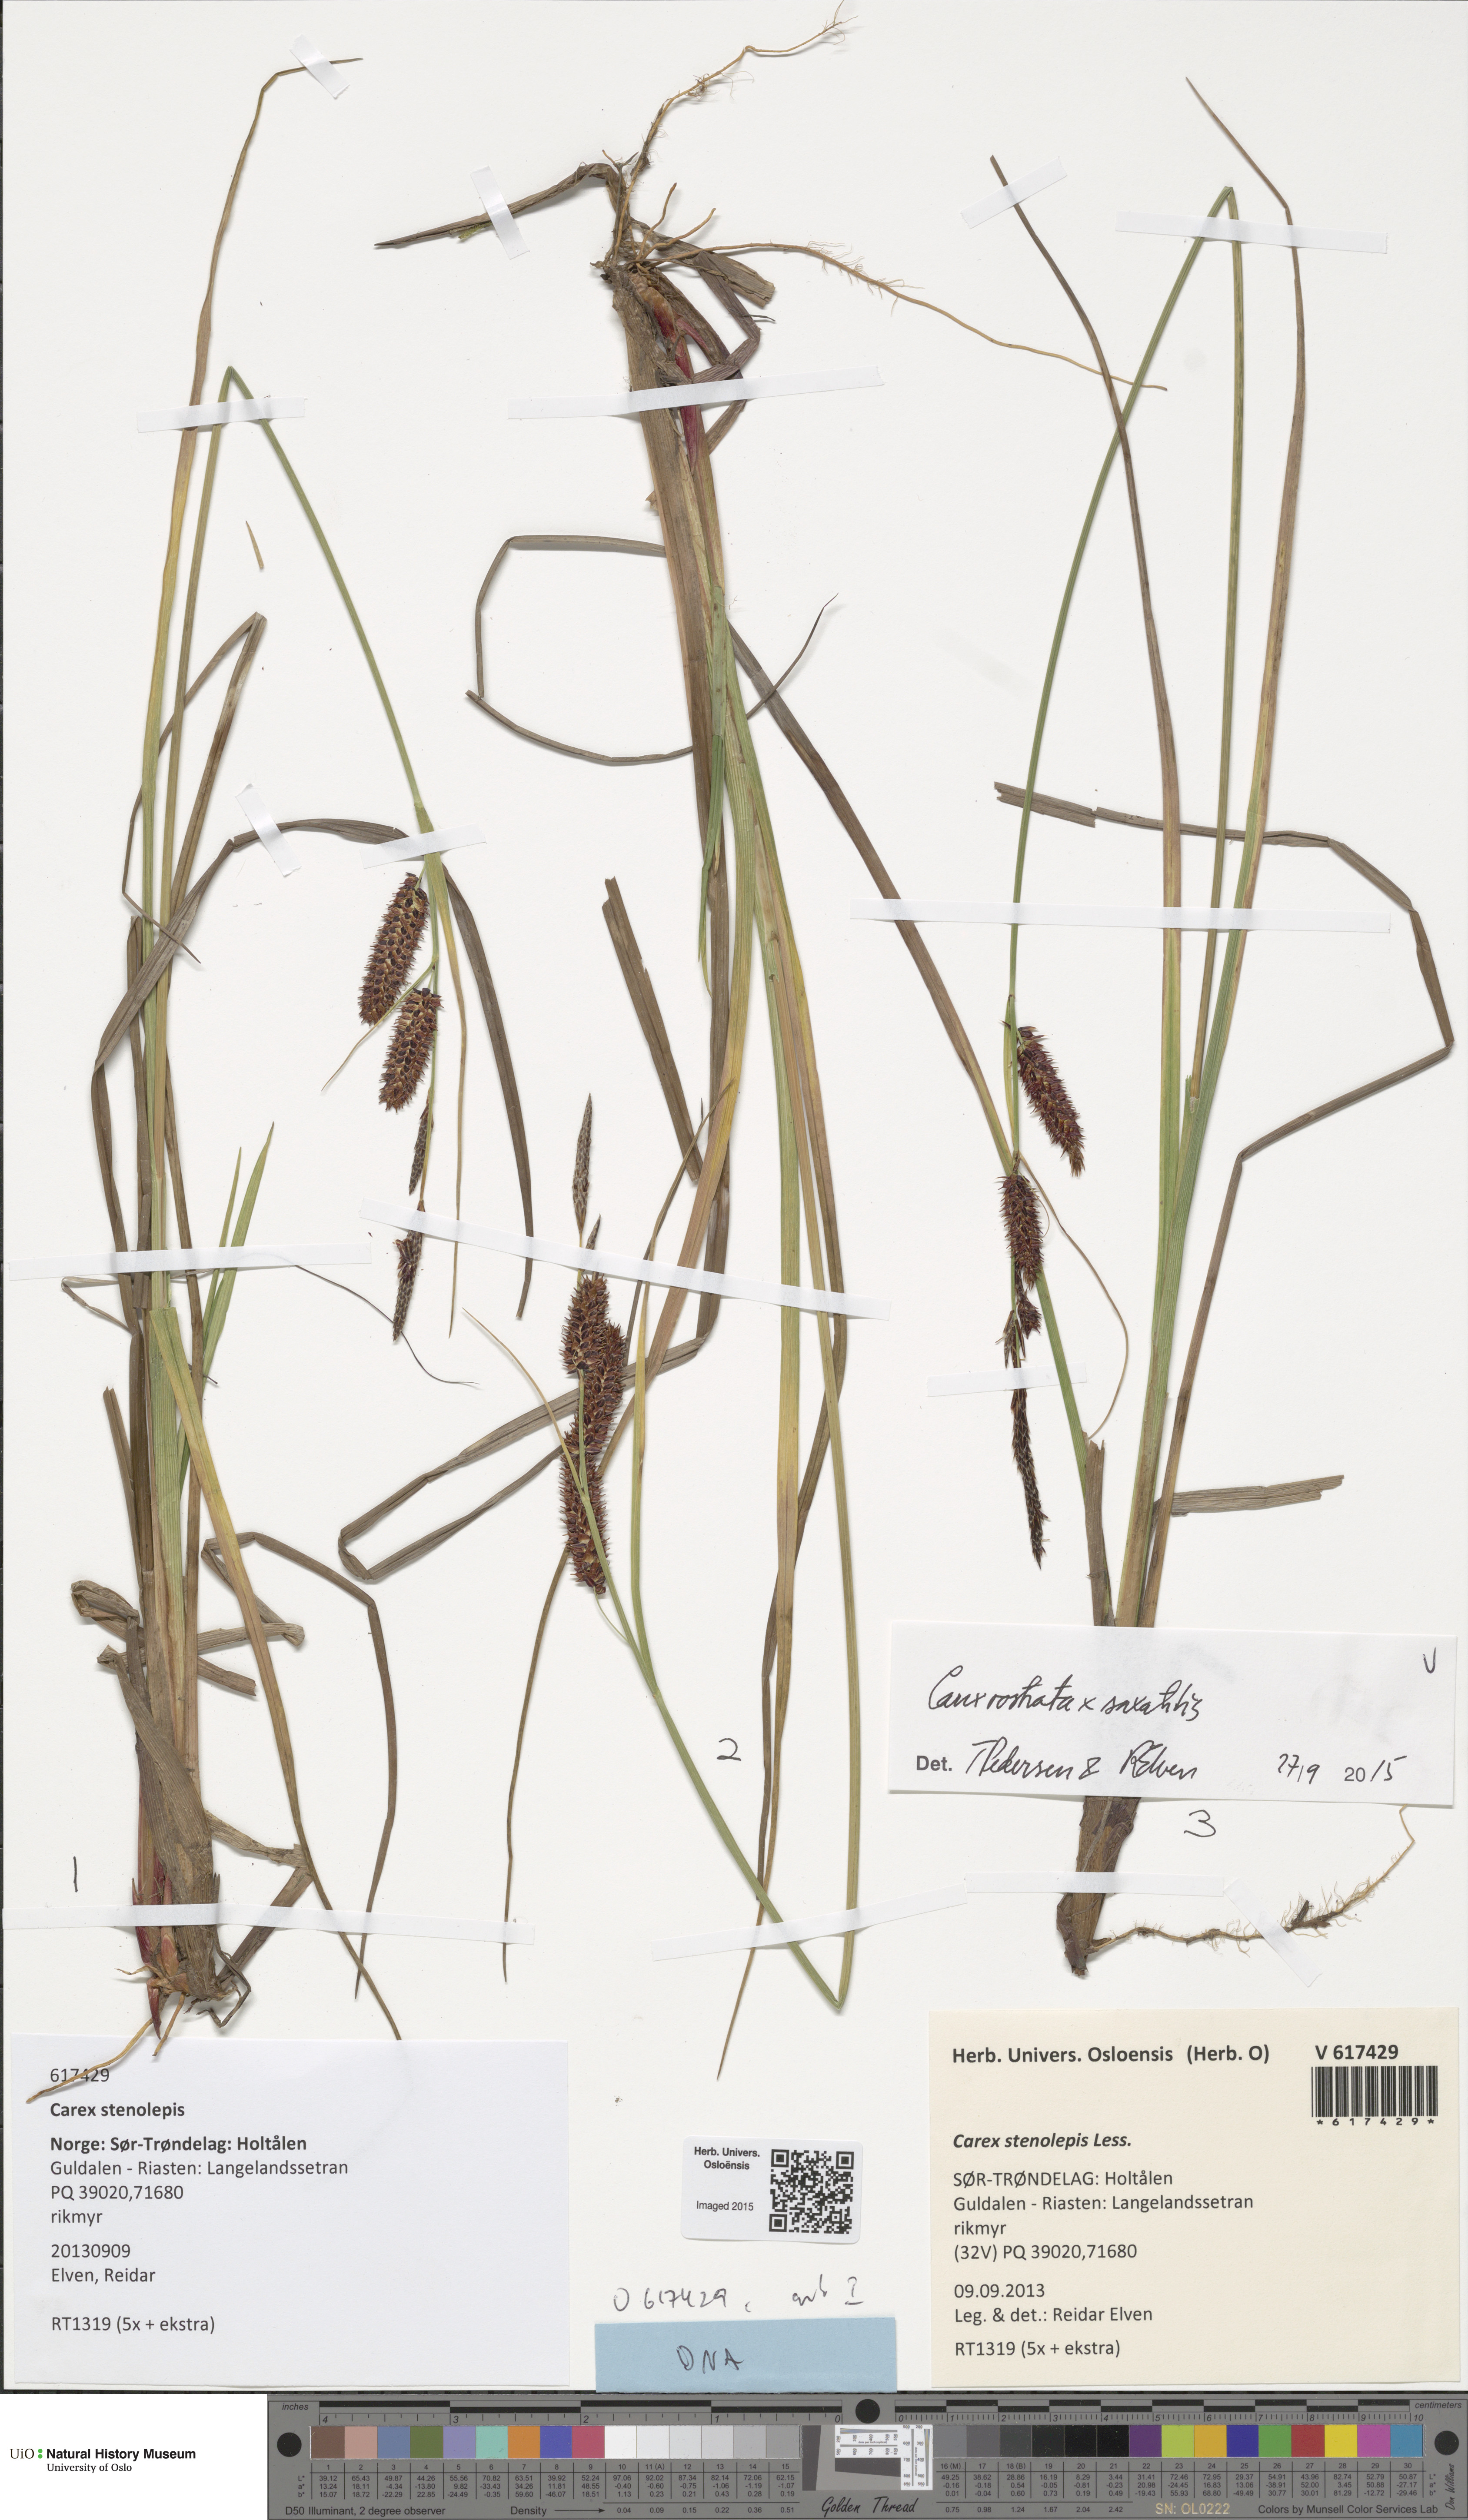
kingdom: Plantae
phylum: Tracheophyta
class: Liliopsida
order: Poales
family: Cyperaceae
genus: Carex
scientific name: Carex
